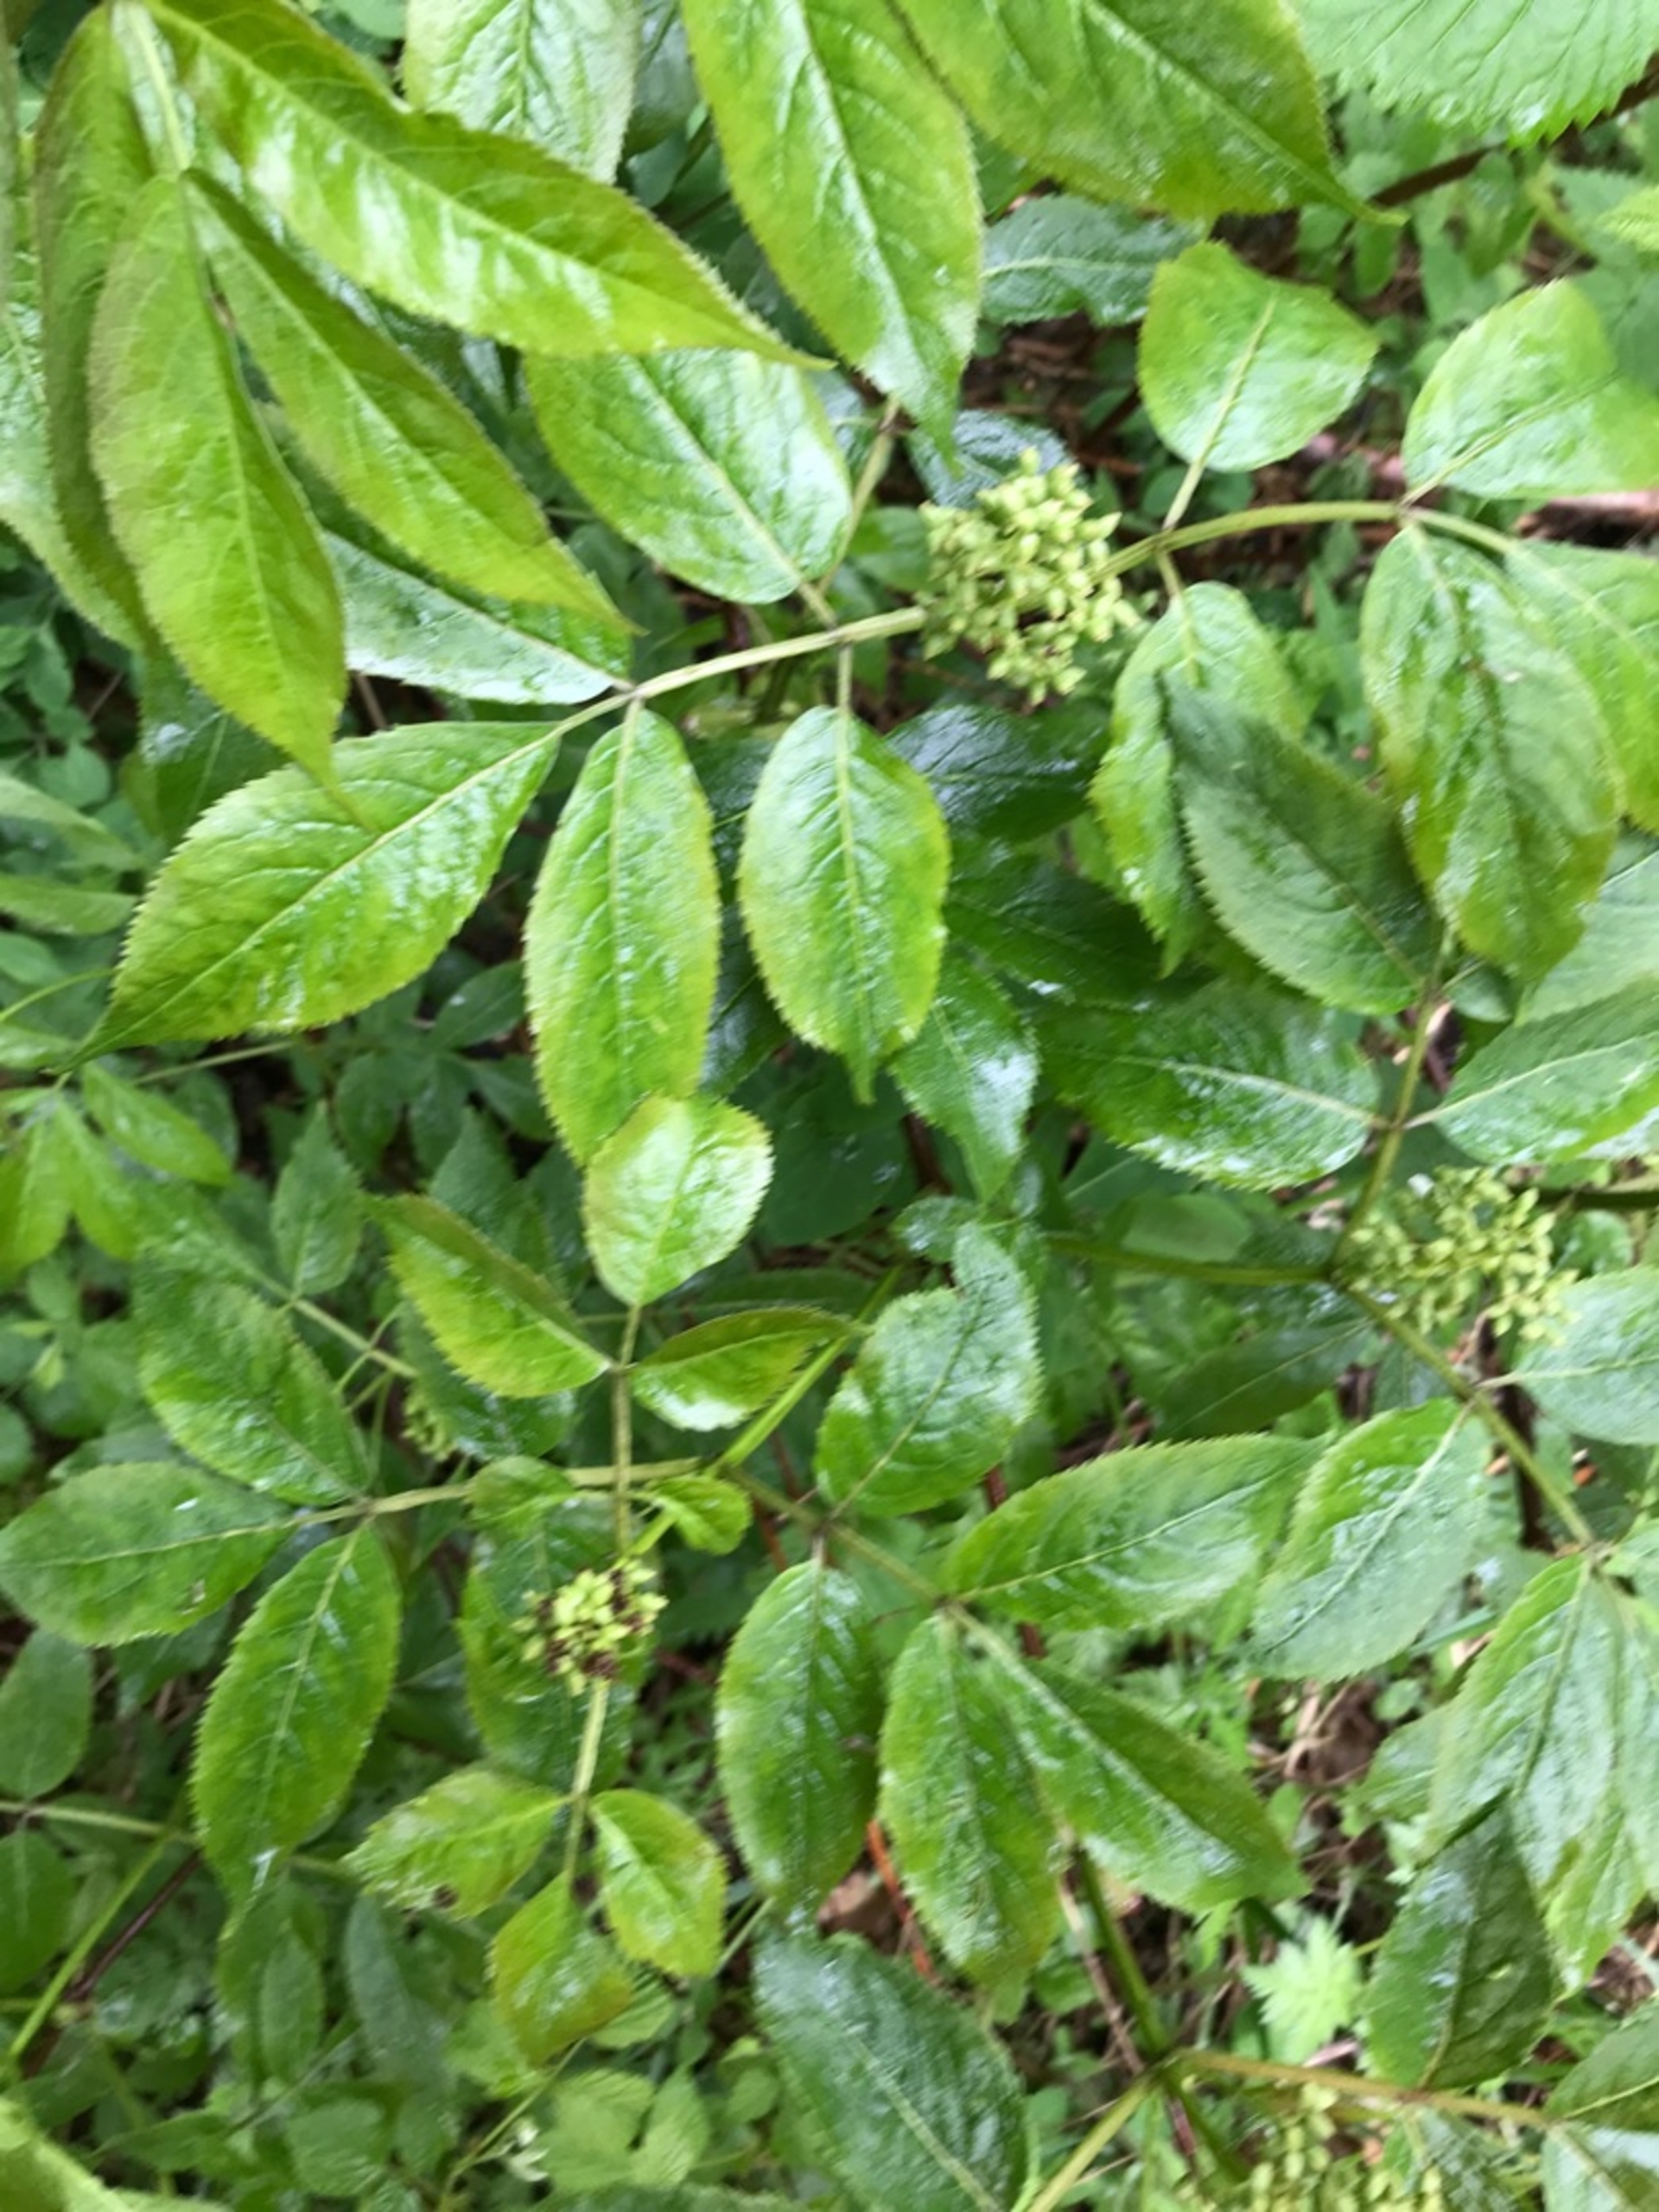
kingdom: Plantae
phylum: Tracheophyta
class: Magnoliopsida
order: Dipsacales
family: Viburnaceae
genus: Sambucus
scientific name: Sambucus racemosa
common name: Drue-hyld
